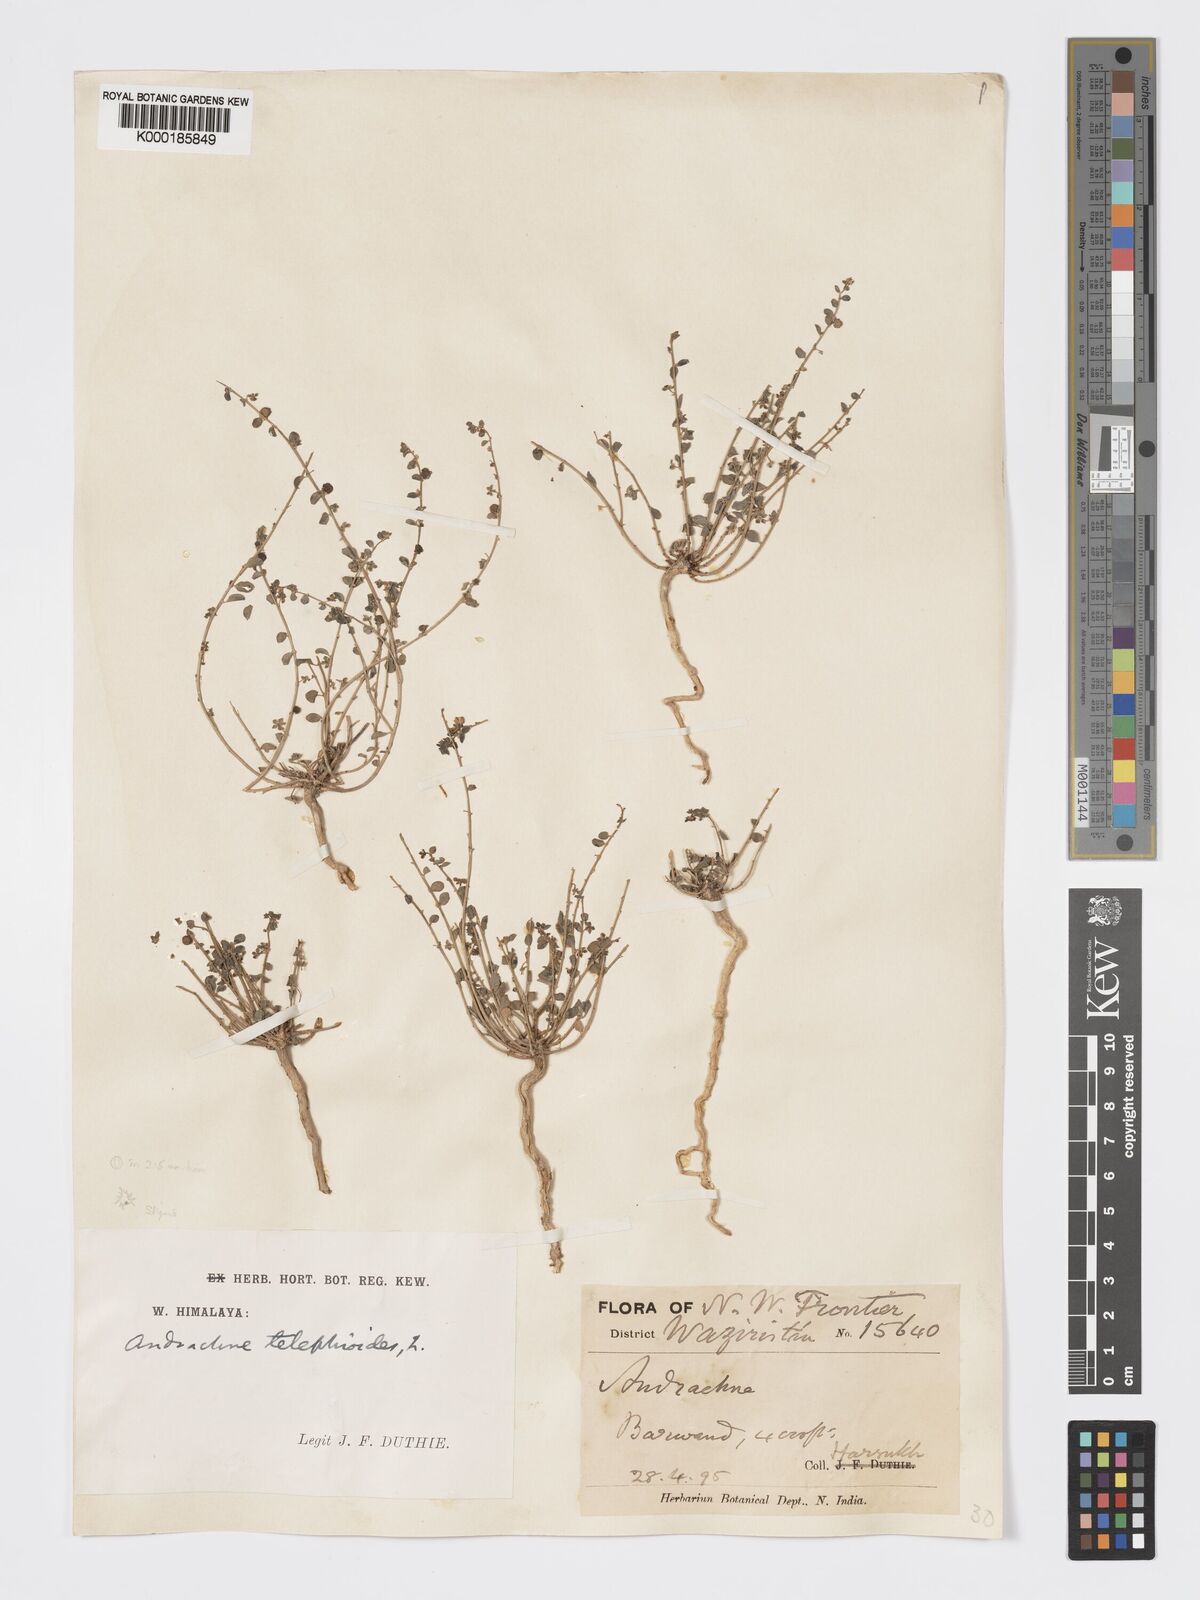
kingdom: Plantae
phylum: Tracheophyta
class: Magnoliopsida
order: Malpighiales
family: Phyllanthaceae
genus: Andrachne
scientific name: Andrachne telephioides
